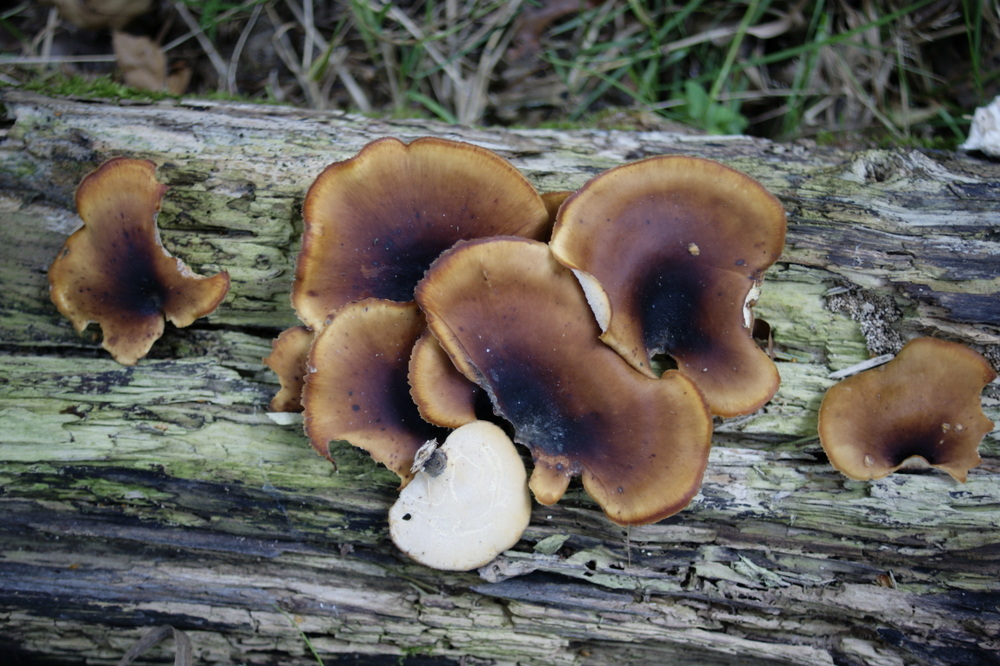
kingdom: Fungi
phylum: Basidiomycota
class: Agaricomycetes
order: Polyporales
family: Polyporaceae
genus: Picipes
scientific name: Picipes badius
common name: kastaniebrun stilkporesvamp
